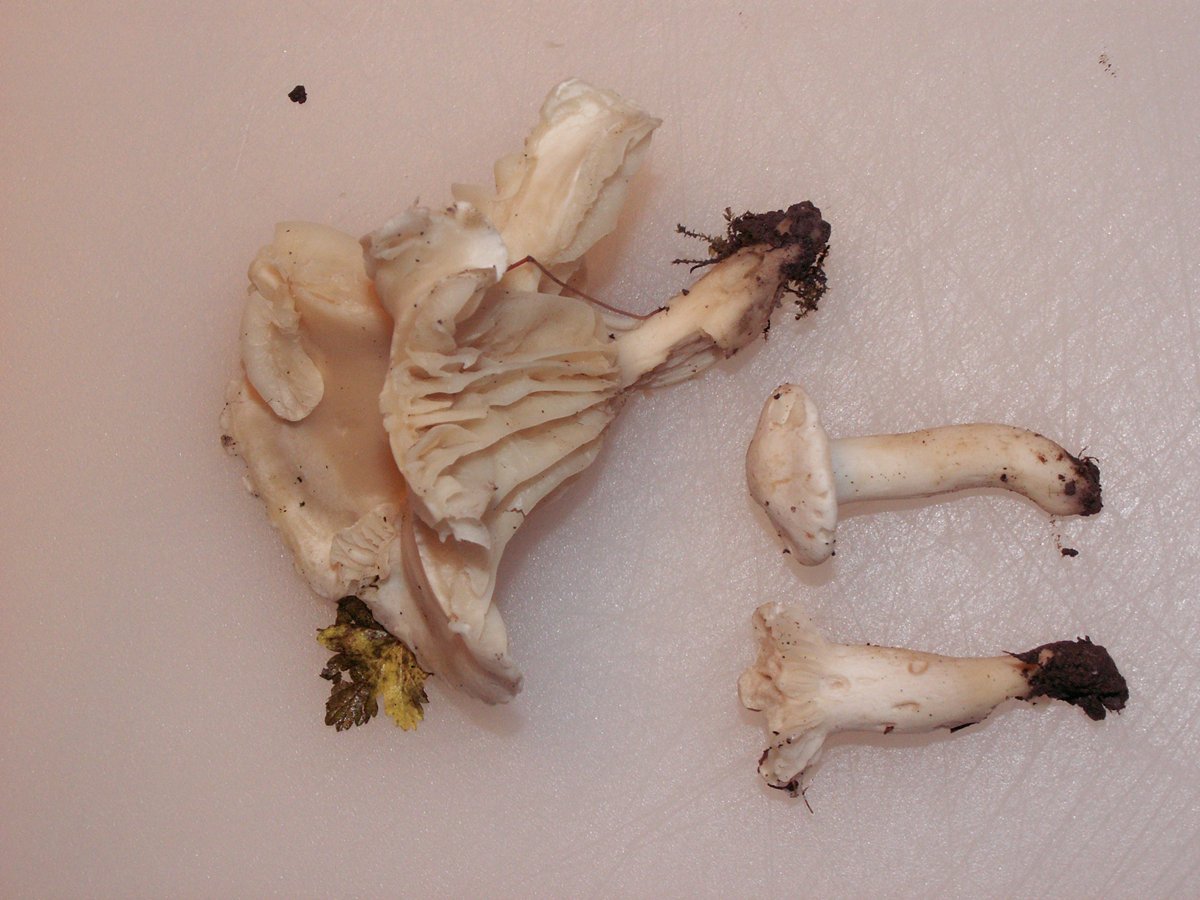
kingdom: Fungi
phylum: Basidiomycota
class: Agaricomycetes
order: Agaricales
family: Hygrophoraceae
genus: Cuphophyllus
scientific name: Cuphophyllus pratensis
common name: bleg vokshat
